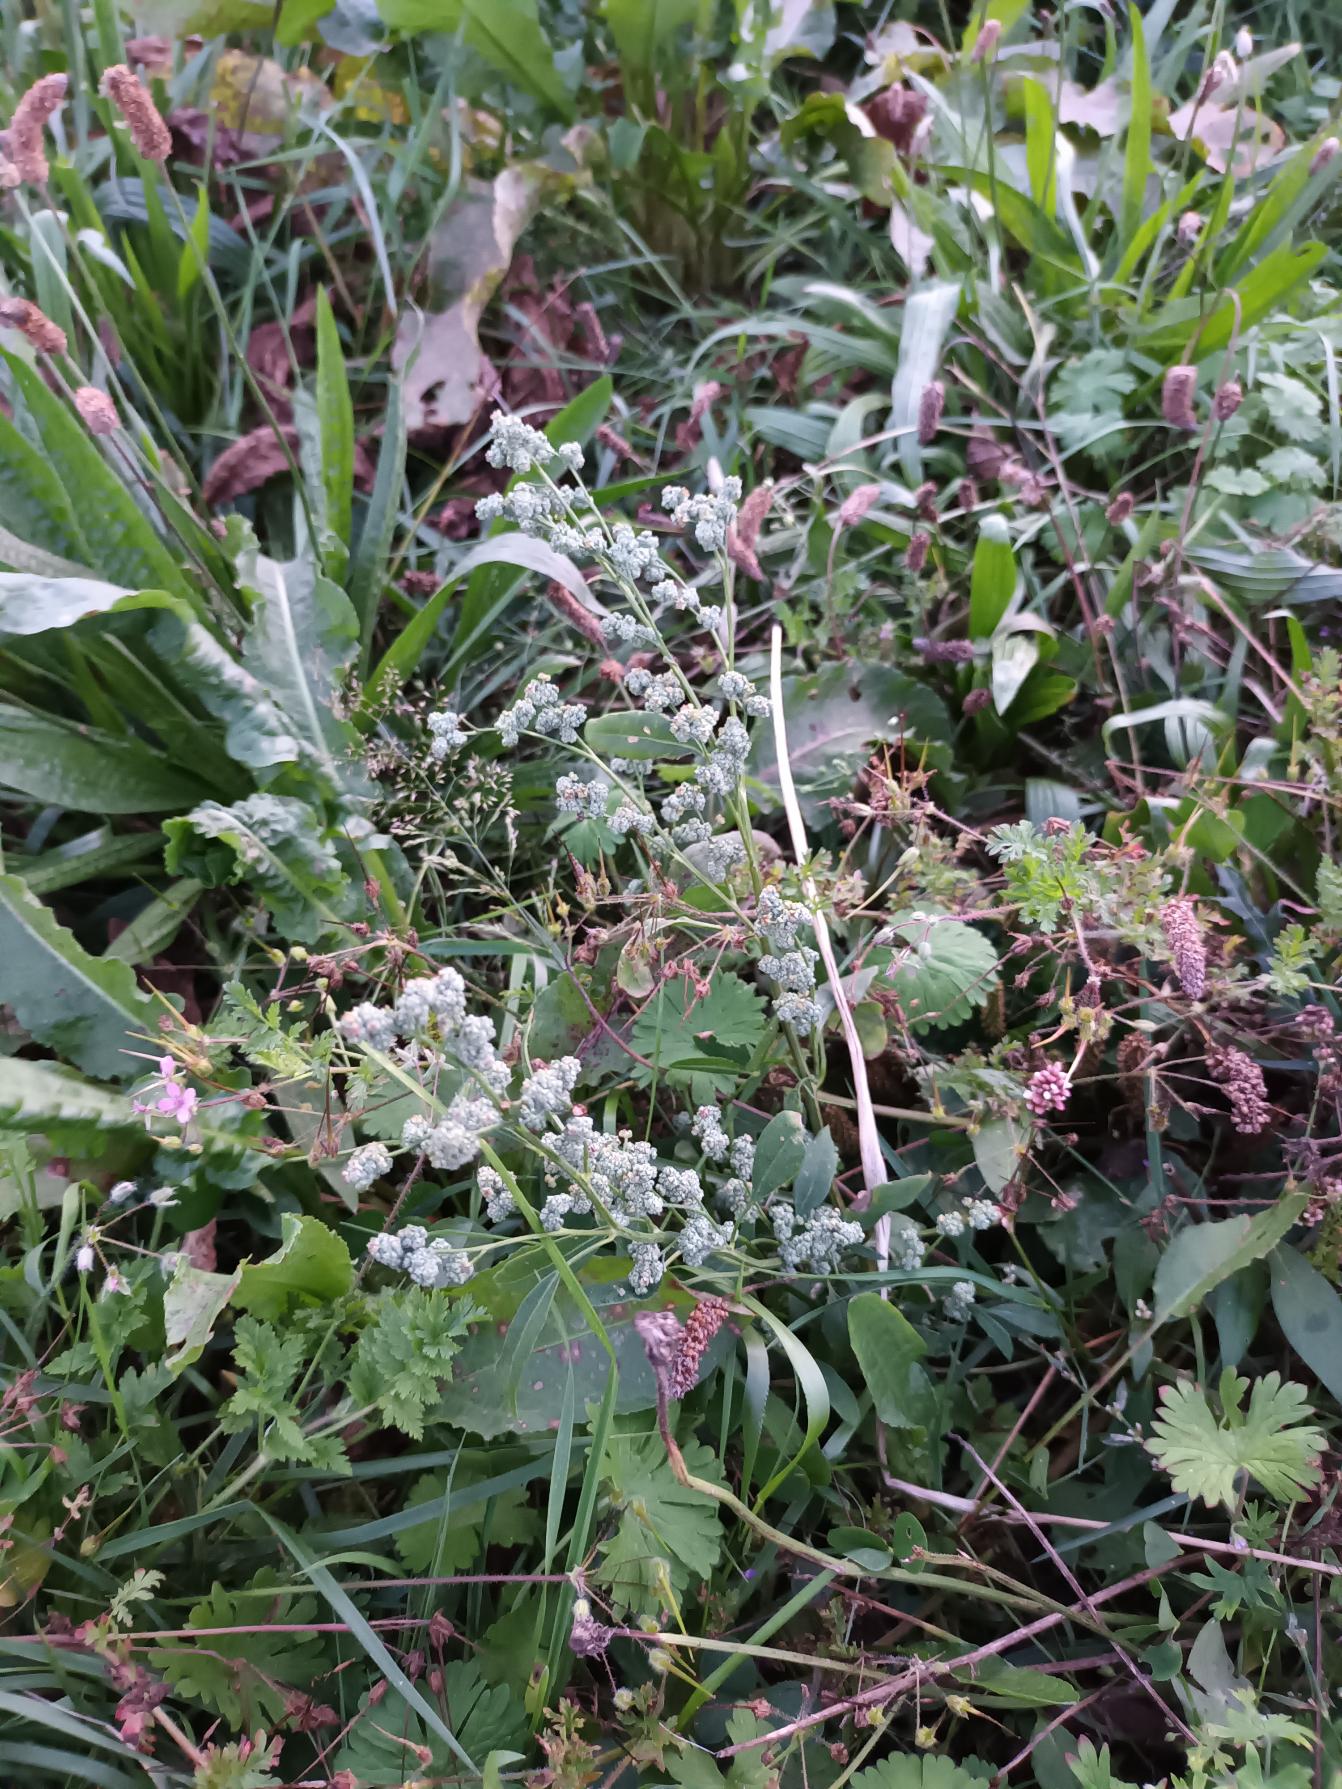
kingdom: Plantae
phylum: Tracheophyta
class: Magnoliopsida
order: Caryophyllales
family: Amaranthaceae
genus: Chenopodium
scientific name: Chenopodium album
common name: Hvidmelet gåsefod
